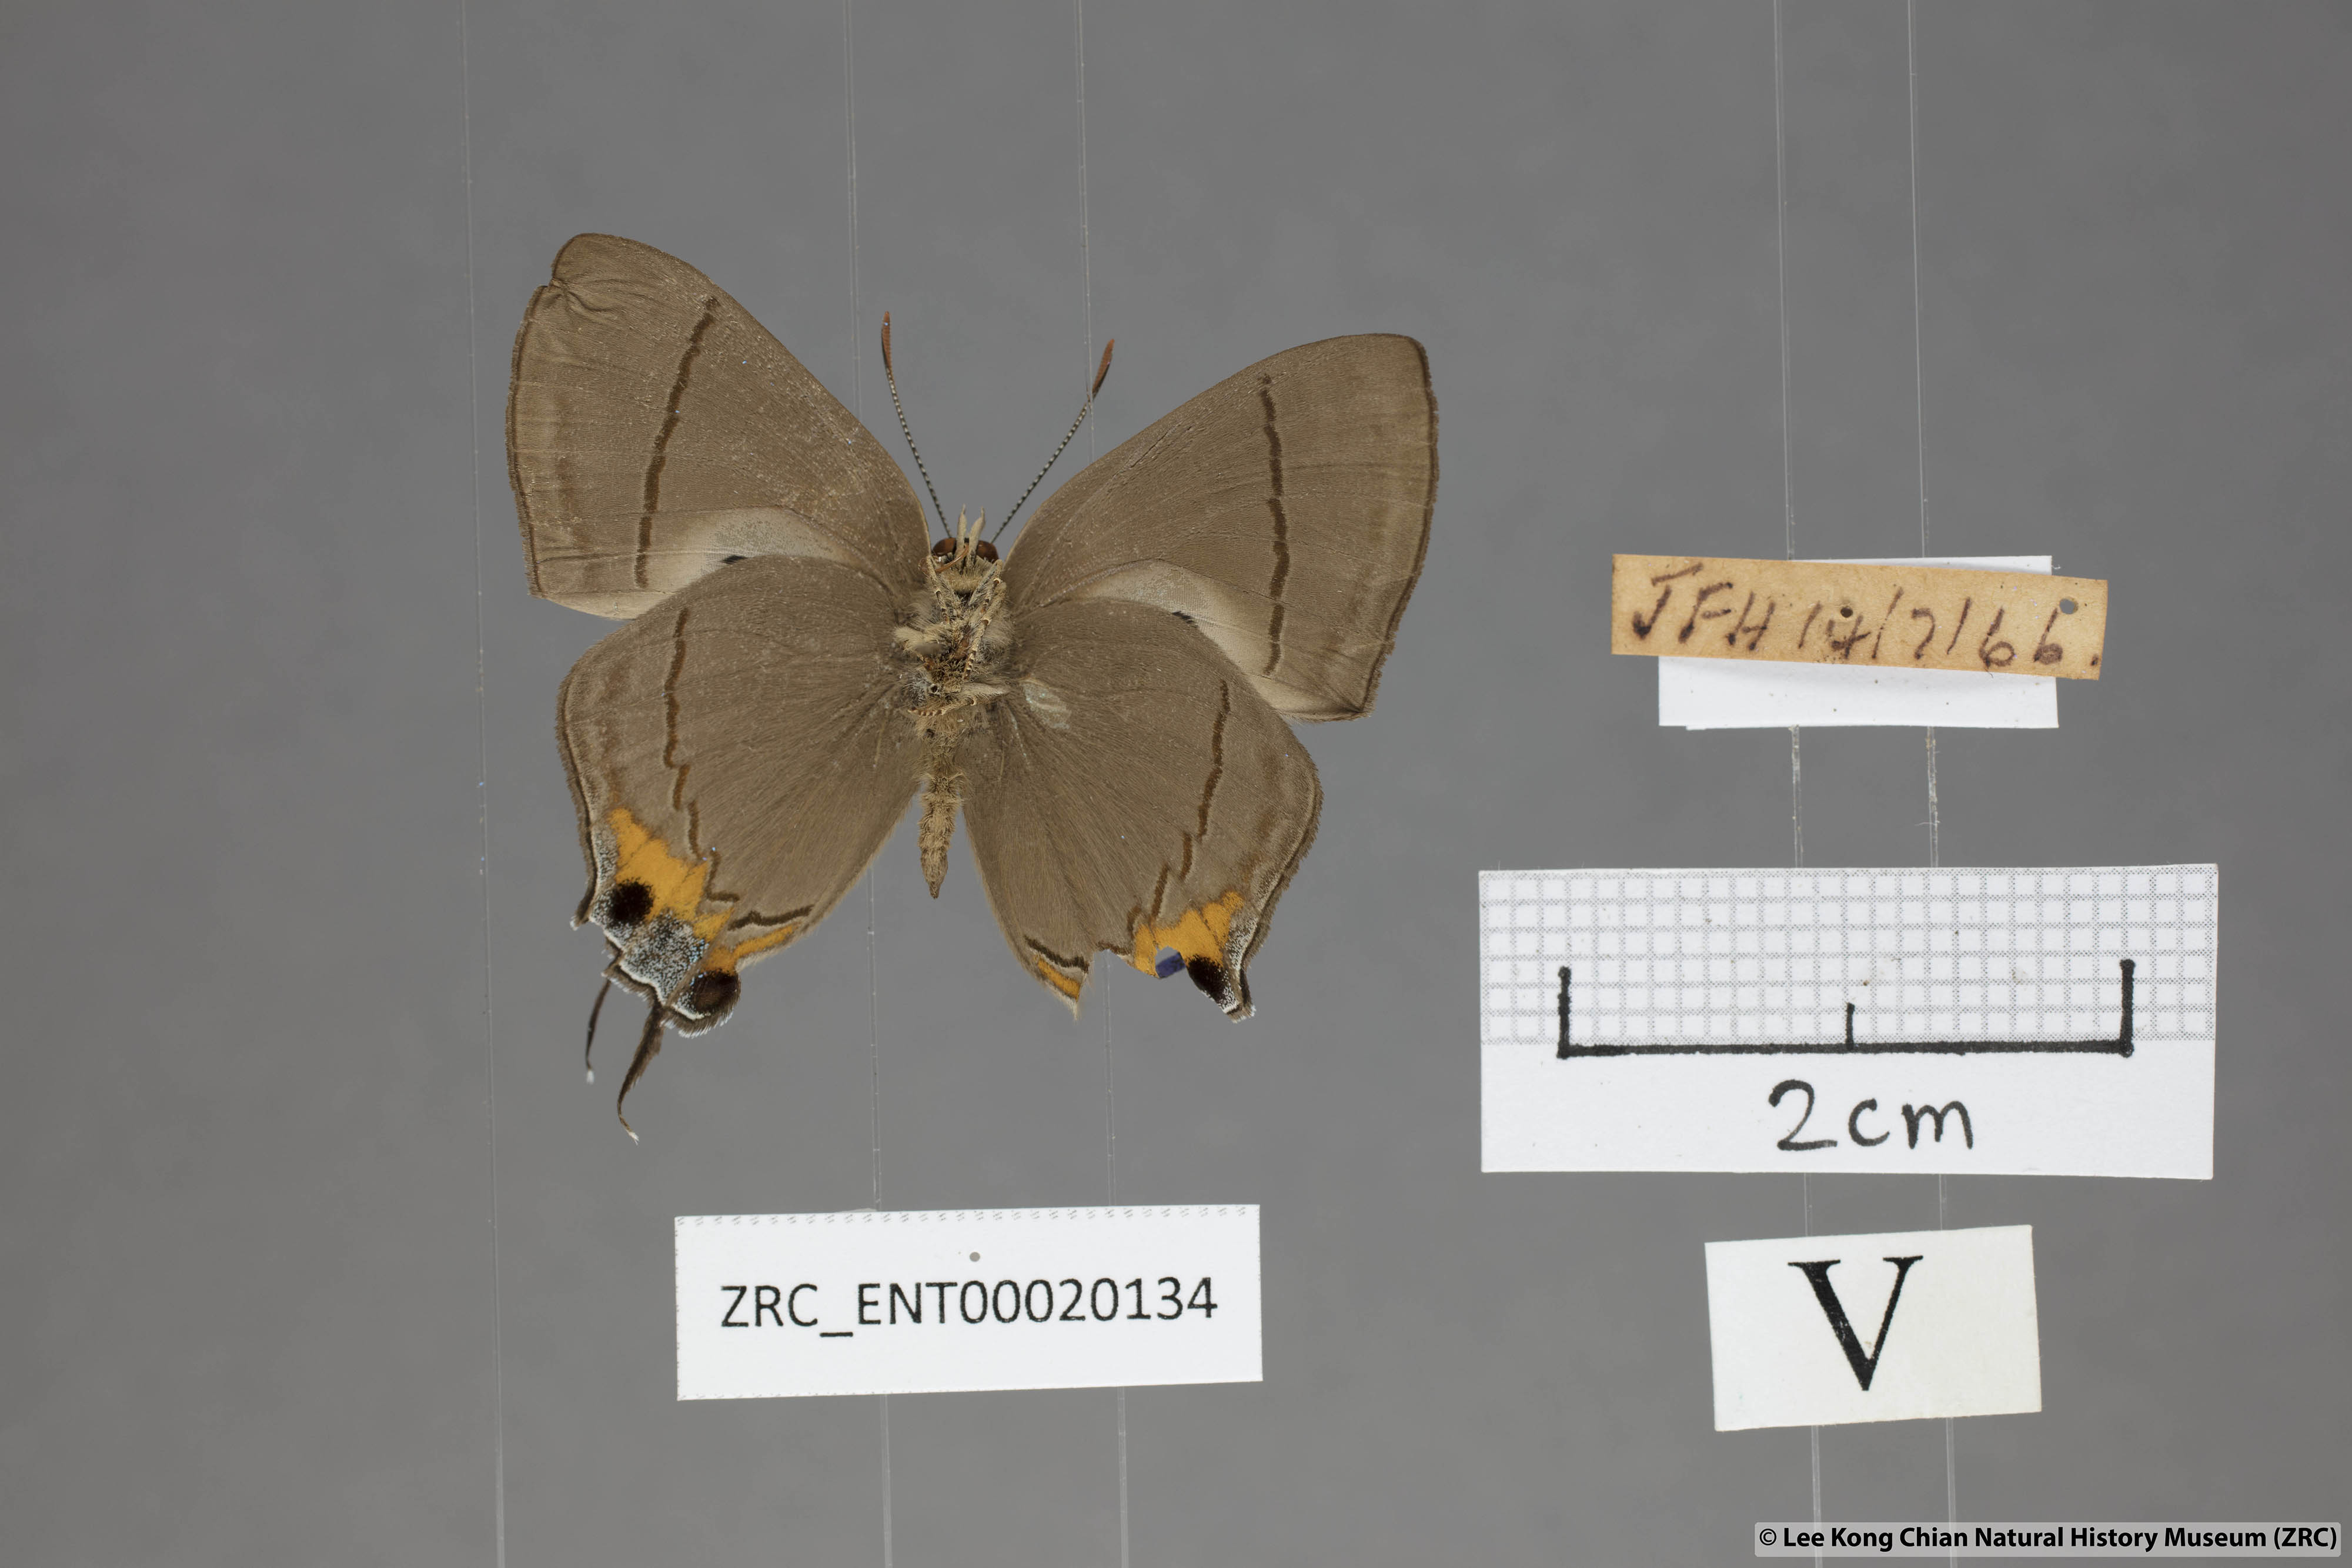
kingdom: Animalia
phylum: Arthropoda
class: Insecta
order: Lepidoptera
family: Lycaenidae
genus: Creon
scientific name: Creon cleobis
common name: Broad-tail royal
